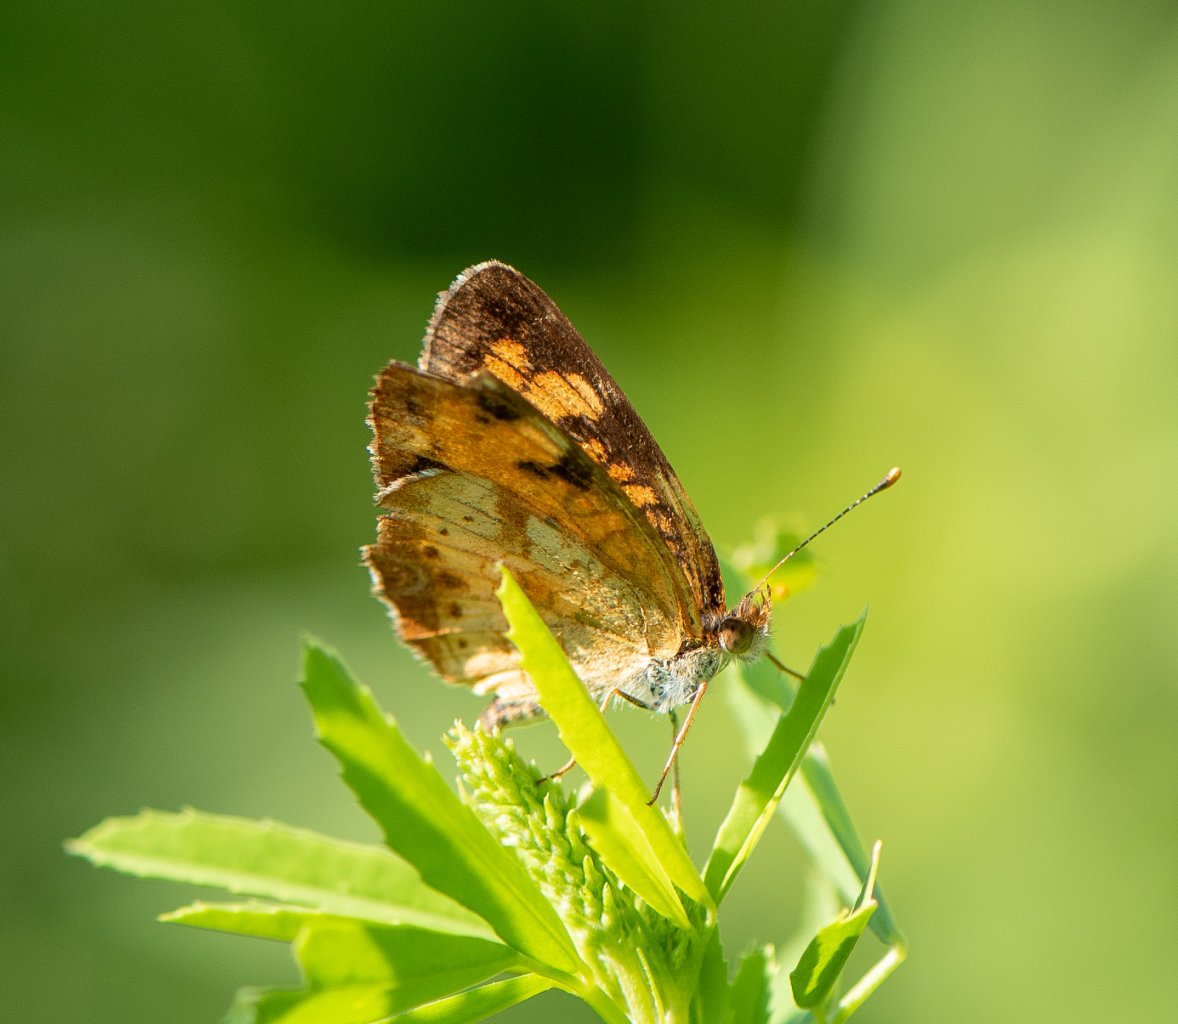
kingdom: Animalia
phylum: Arthropoda
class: Insecta
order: Lepidoptera
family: Nymphalidae
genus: Phyciodes
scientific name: Phyciodes tharos
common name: Northern Crescent
